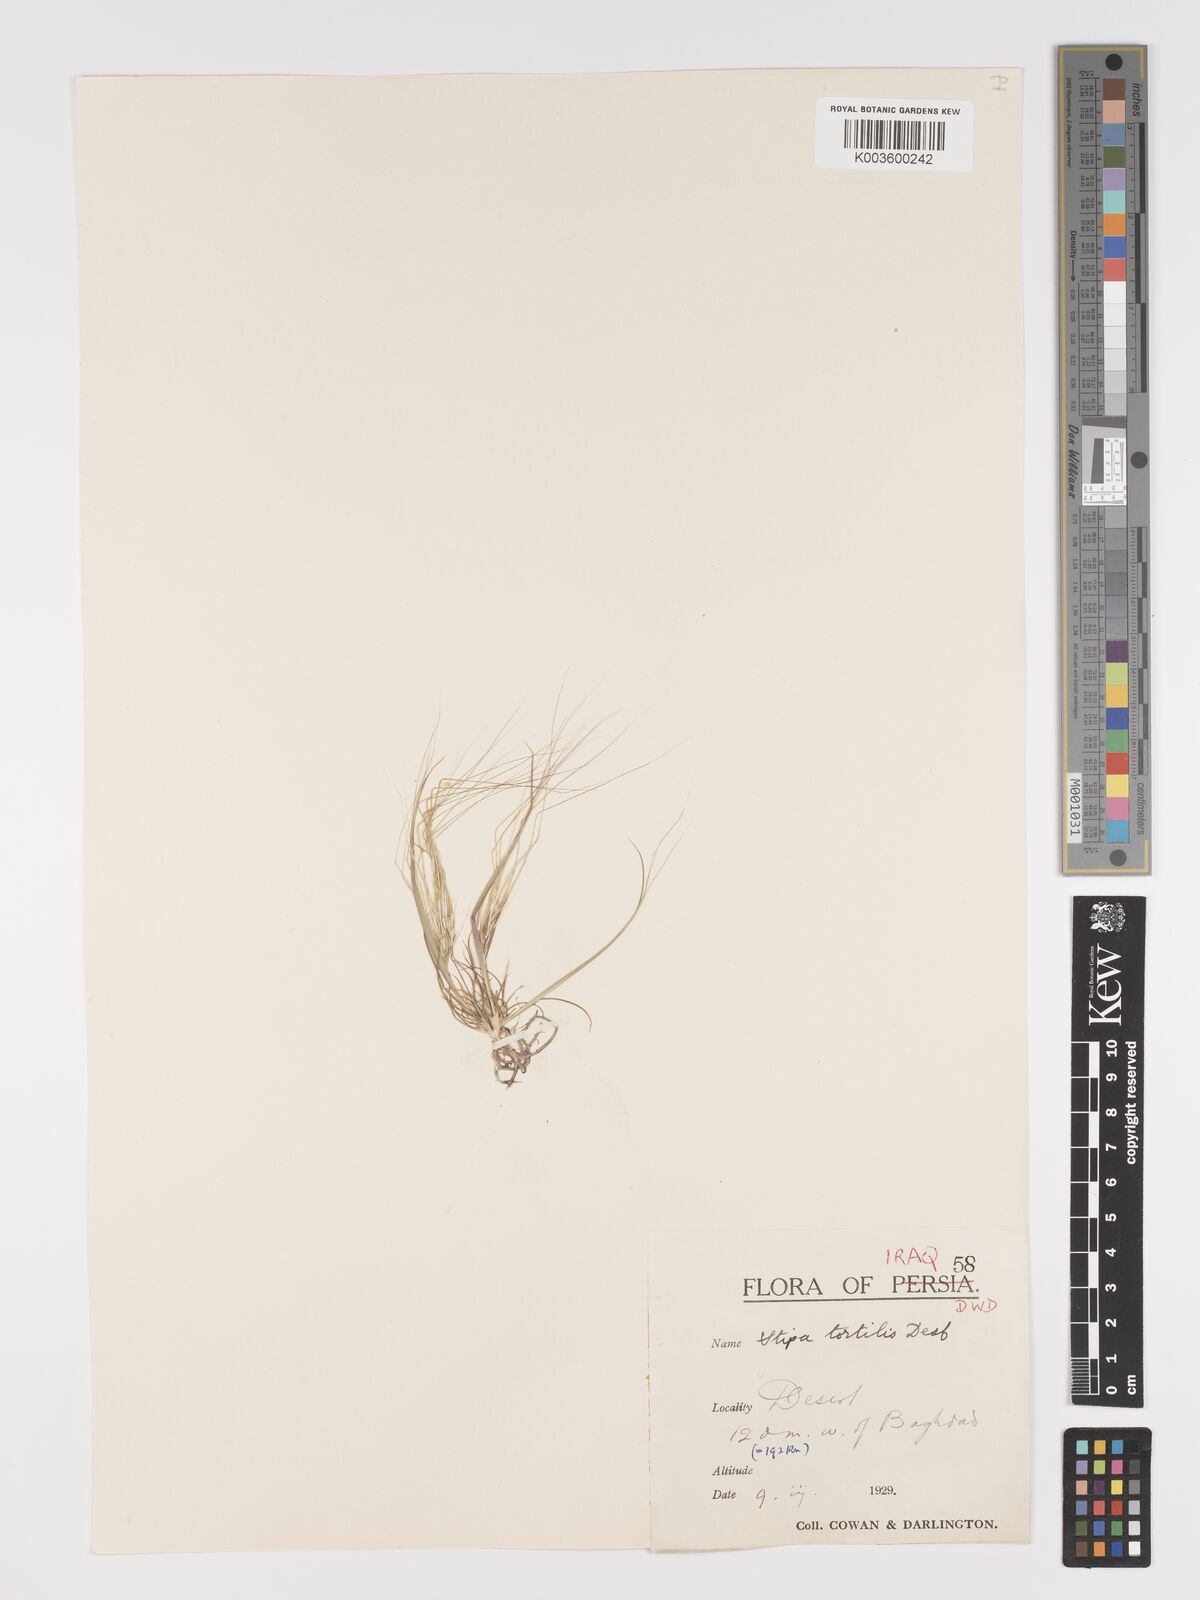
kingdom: Plantae
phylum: Tracheophyta
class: Liliopsida
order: Poales
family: Poaceae
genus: Stipellula
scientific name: Stipellula capensis
